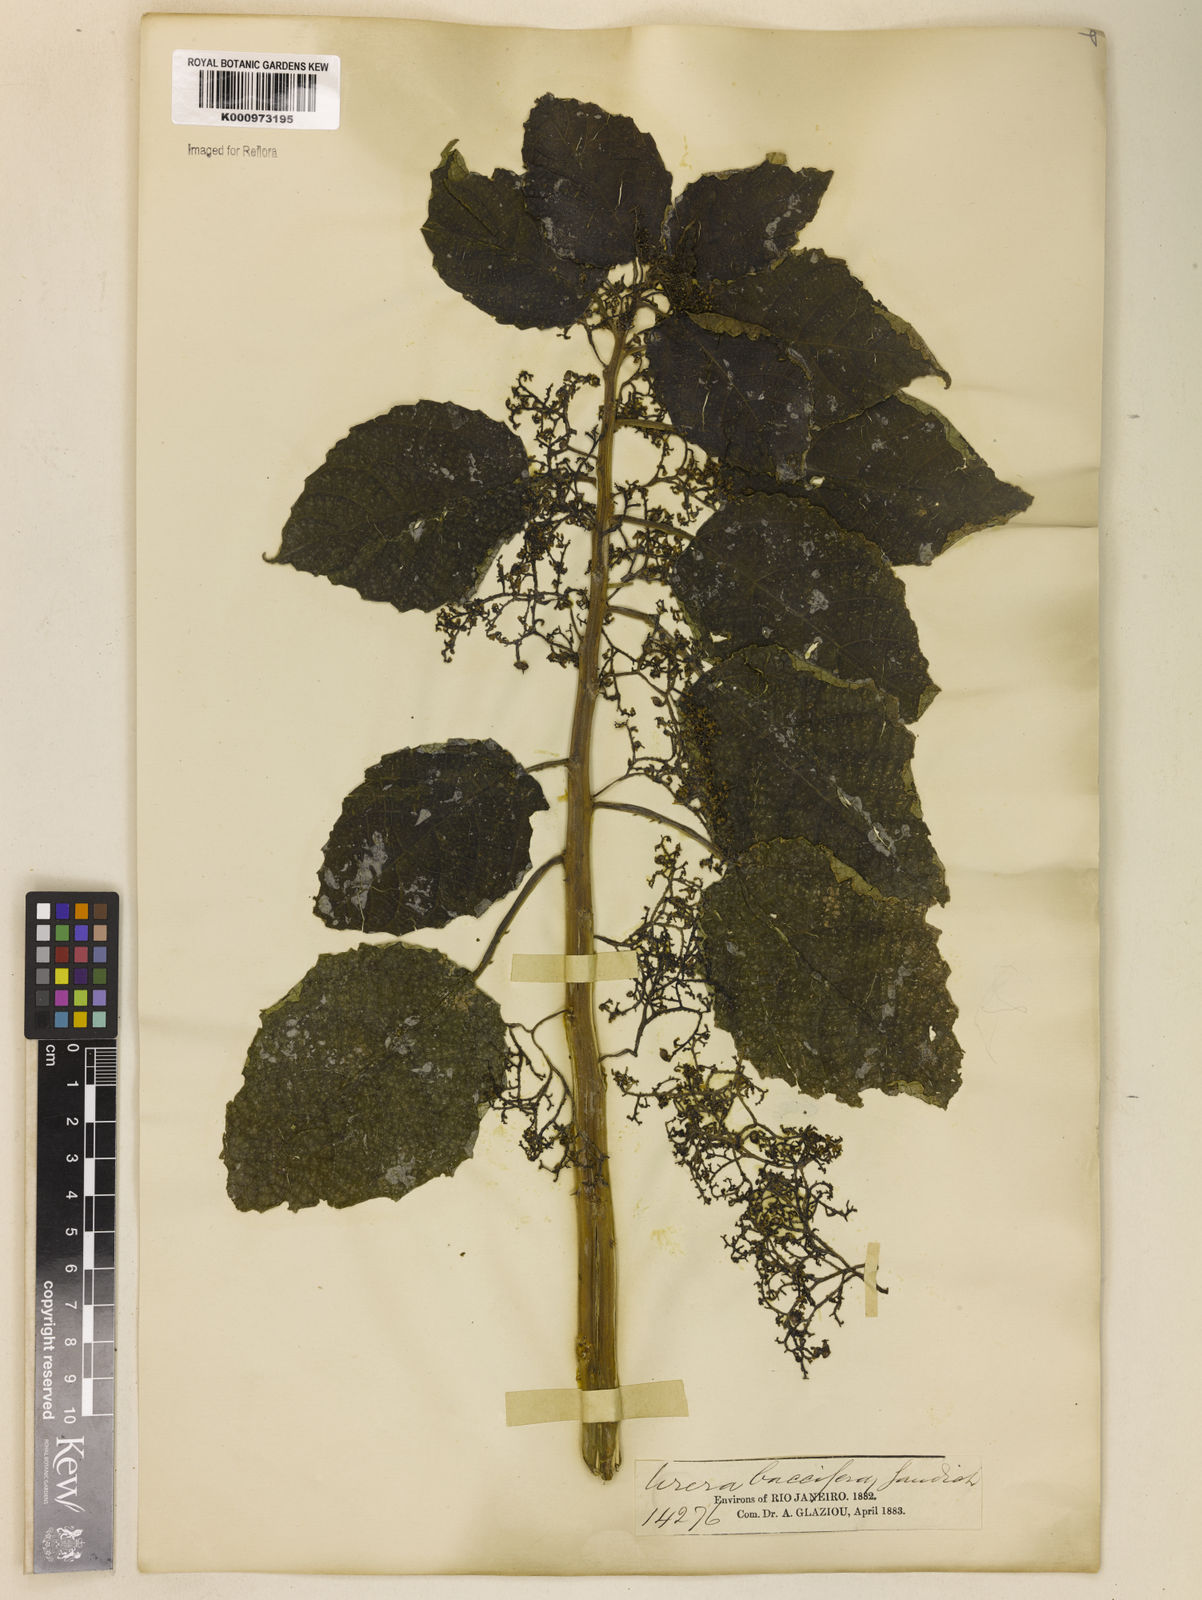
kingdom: Plantae
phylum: Tracheophyta
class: Magnoliopsida
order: Rosales
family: Urticaceae
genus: Urera
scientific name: Urera baccifera
